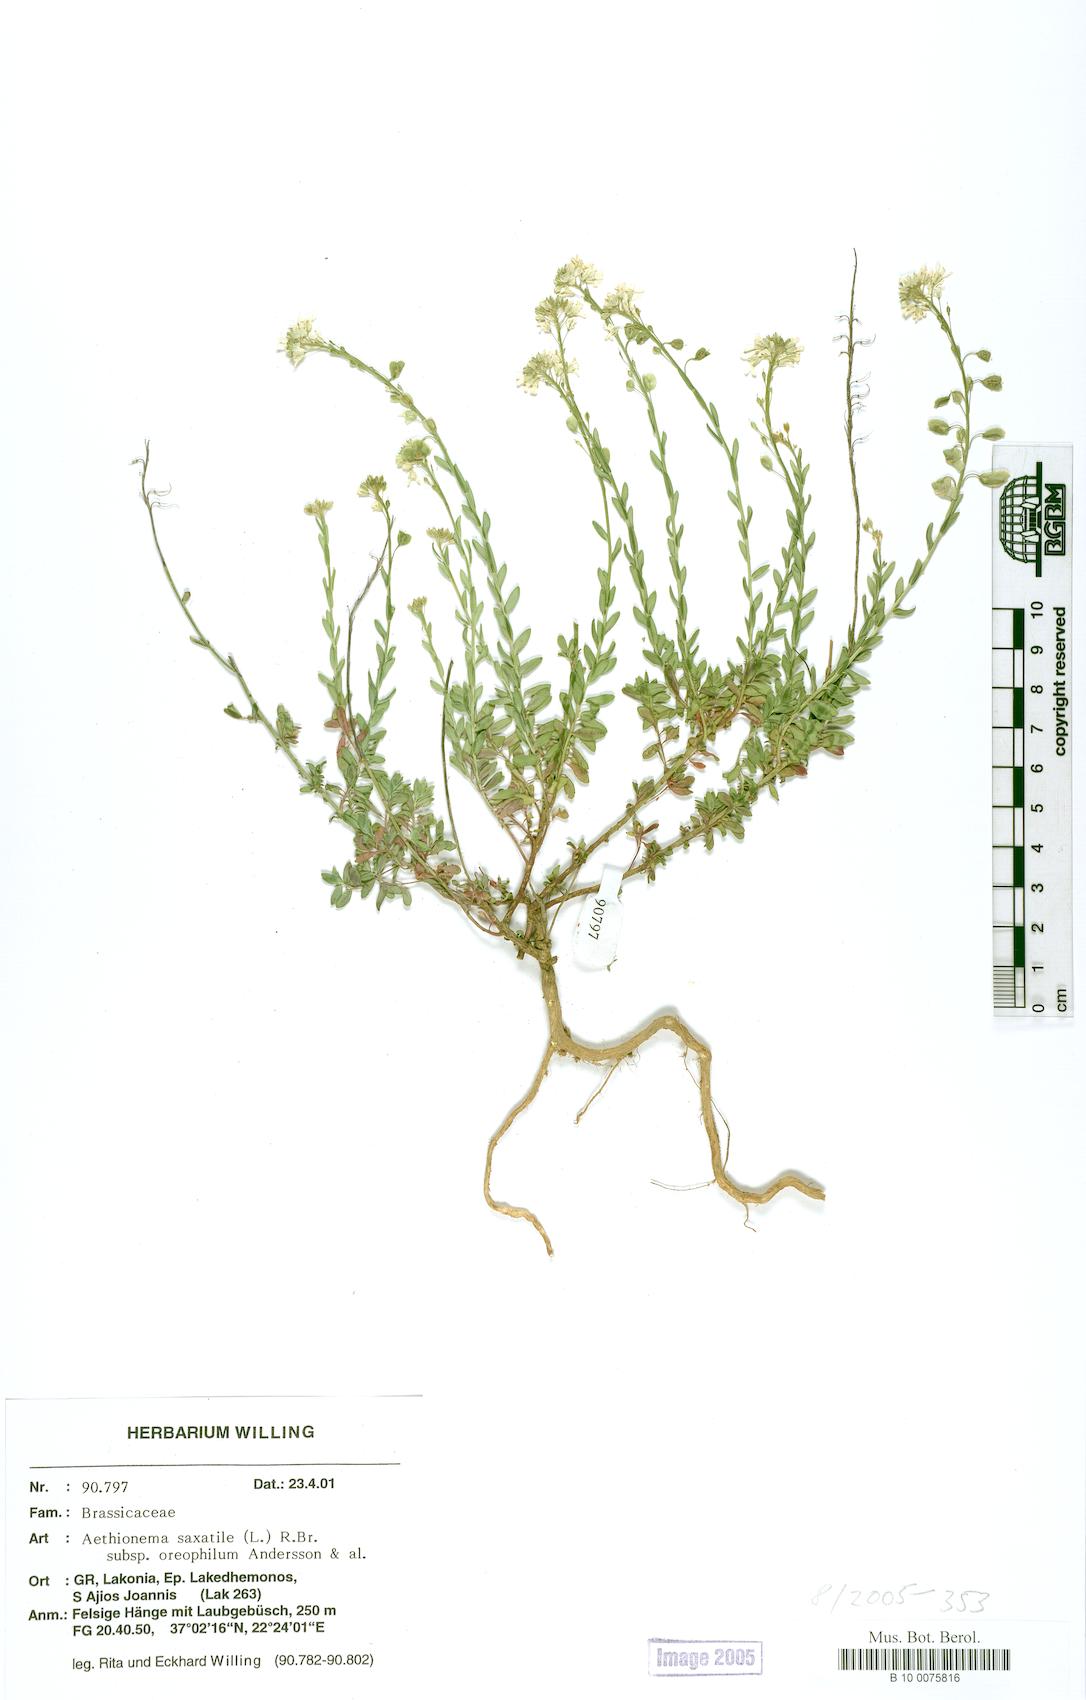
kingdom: Plantae
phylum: Tracheophyta
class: Magnoliopsida
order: Brassicales
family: Brassicaceae
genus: Aethionema
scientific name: Aethionema saxatile
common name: Burnt candytuft
